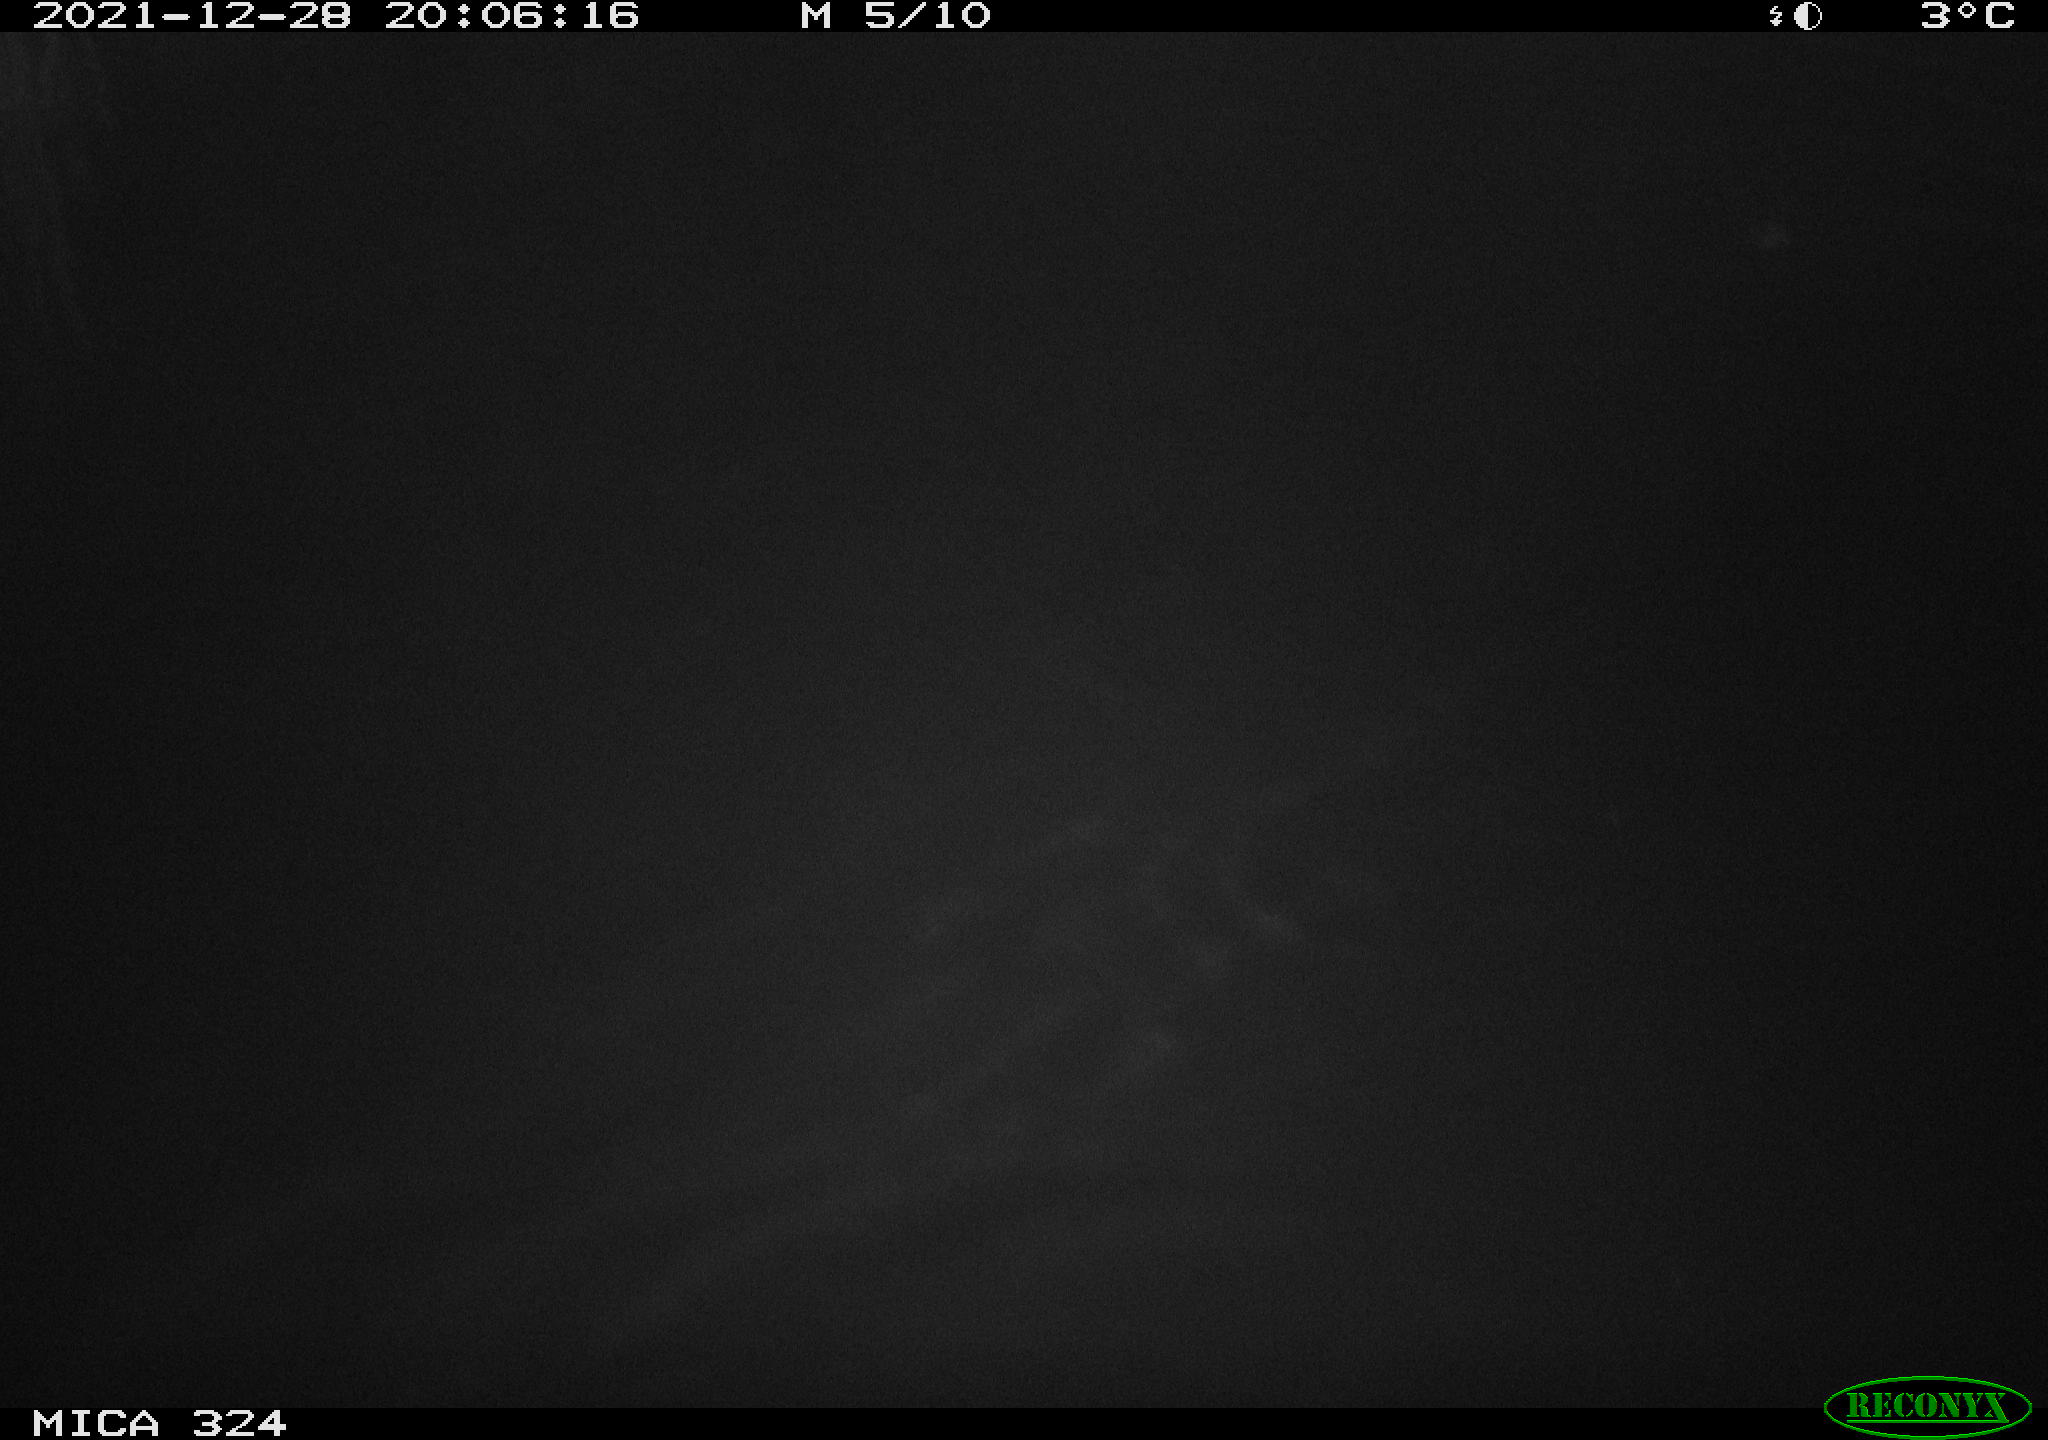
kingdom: Animalia
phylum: Chordata
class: Mammalia
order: Rodentia
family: Cricetidae
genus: Ondatra
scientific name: Ondatra zibethicus
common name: Muskrat
